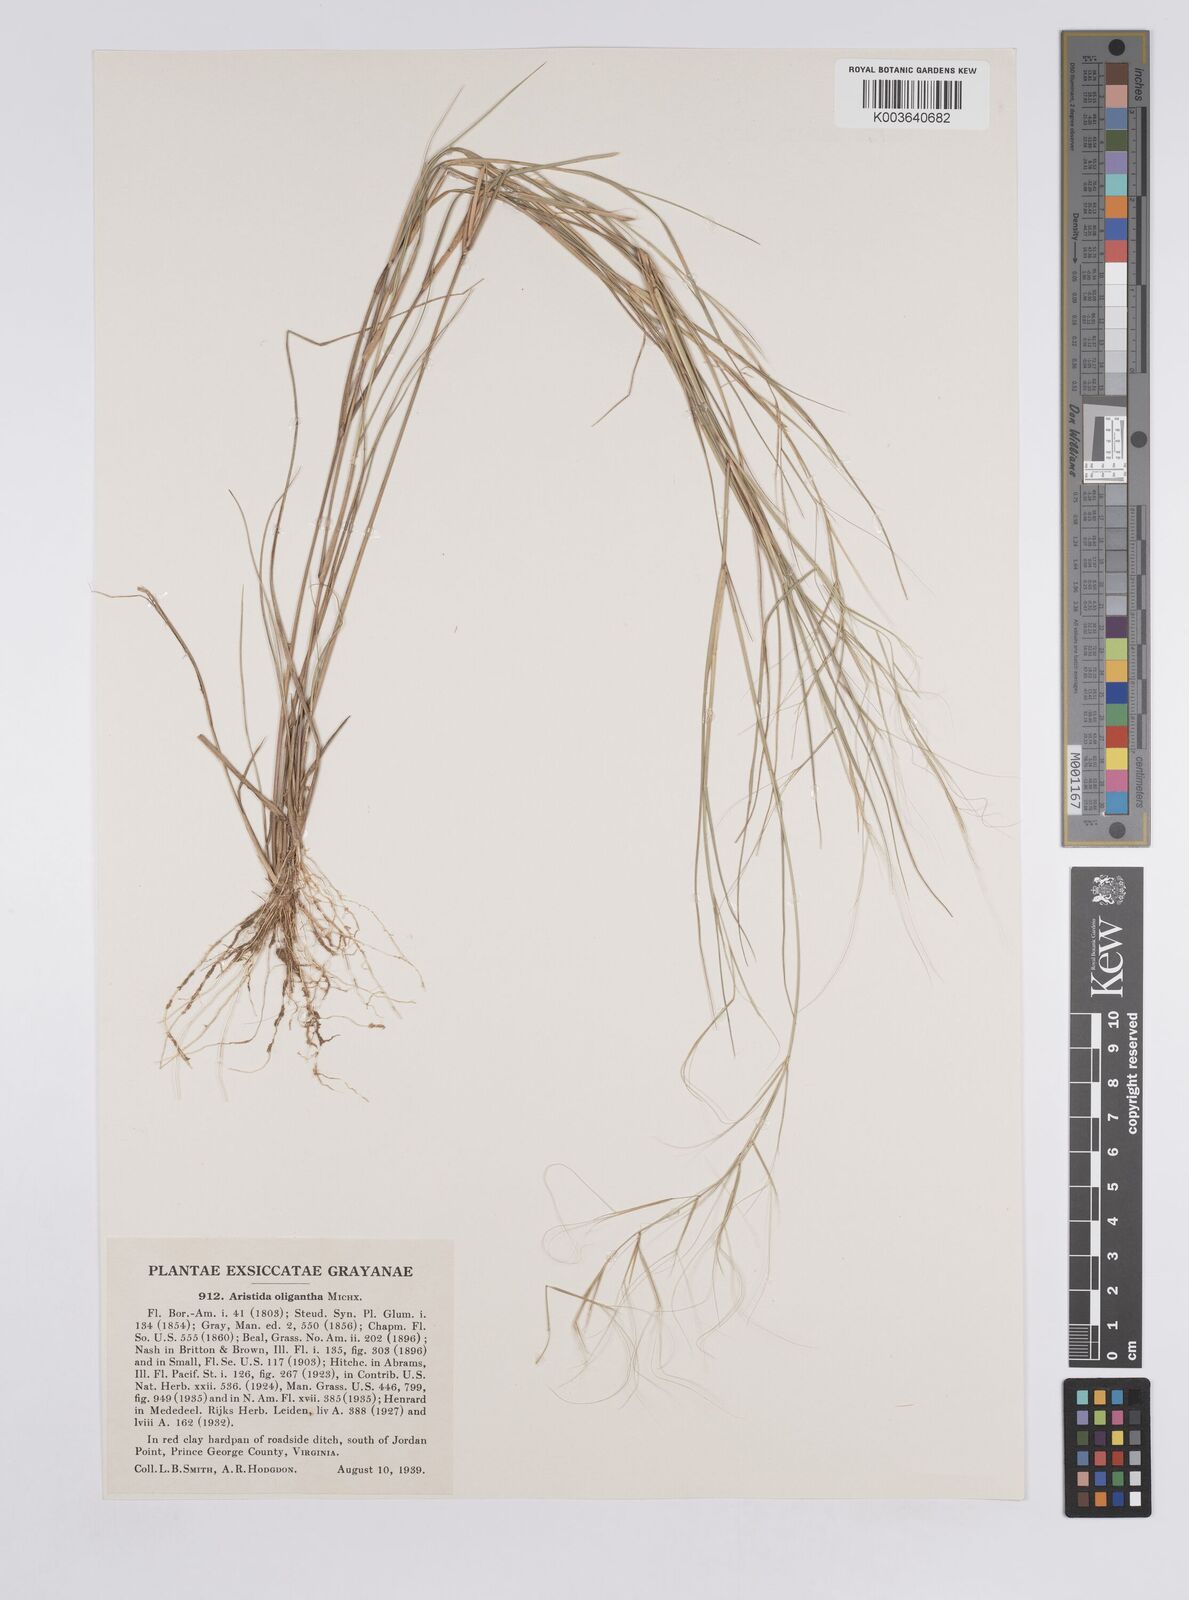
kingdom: Plantae
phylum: Tracheophyta
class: Liliopsida
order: Poales
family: Poaceae
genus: Aristida
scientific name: Aristida oligantha
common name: Few-flowered aristida
